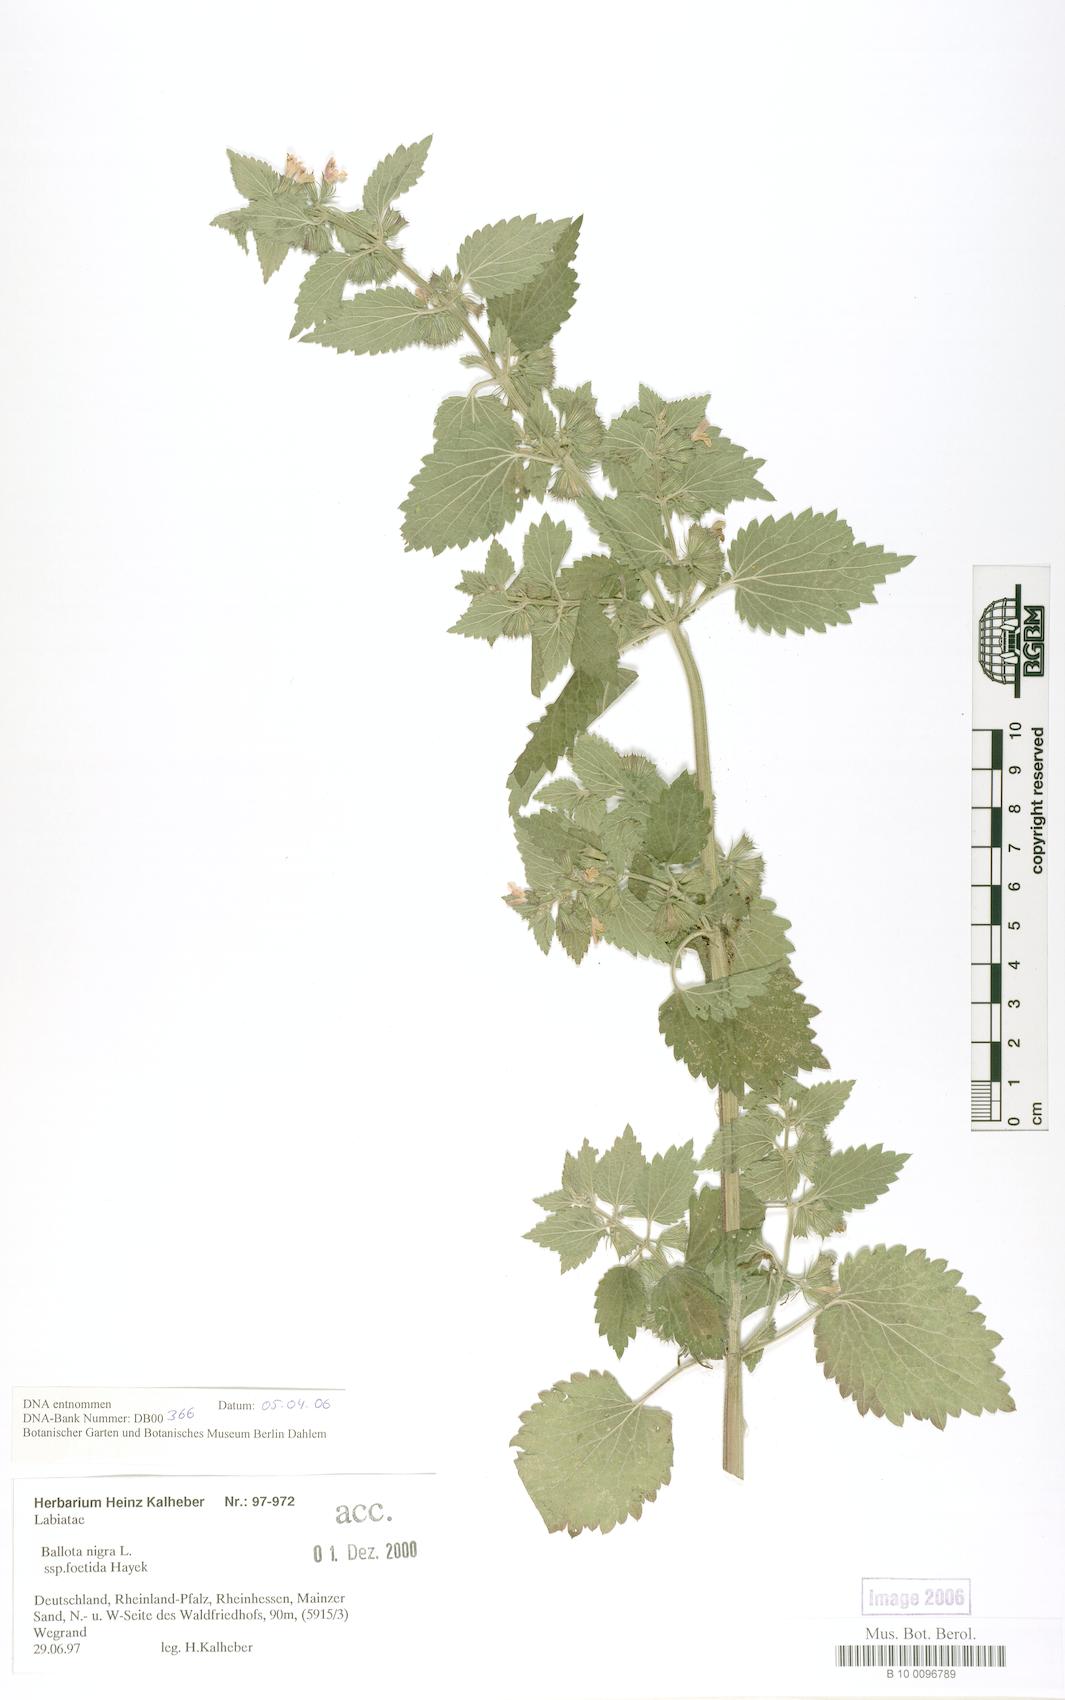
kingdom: Plantae
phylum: Tracheophyta
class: Magnoliopsida
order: Lamiales
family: Lamiaceae
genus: Ballota
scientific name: Ballota nigra
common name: Black horehound
